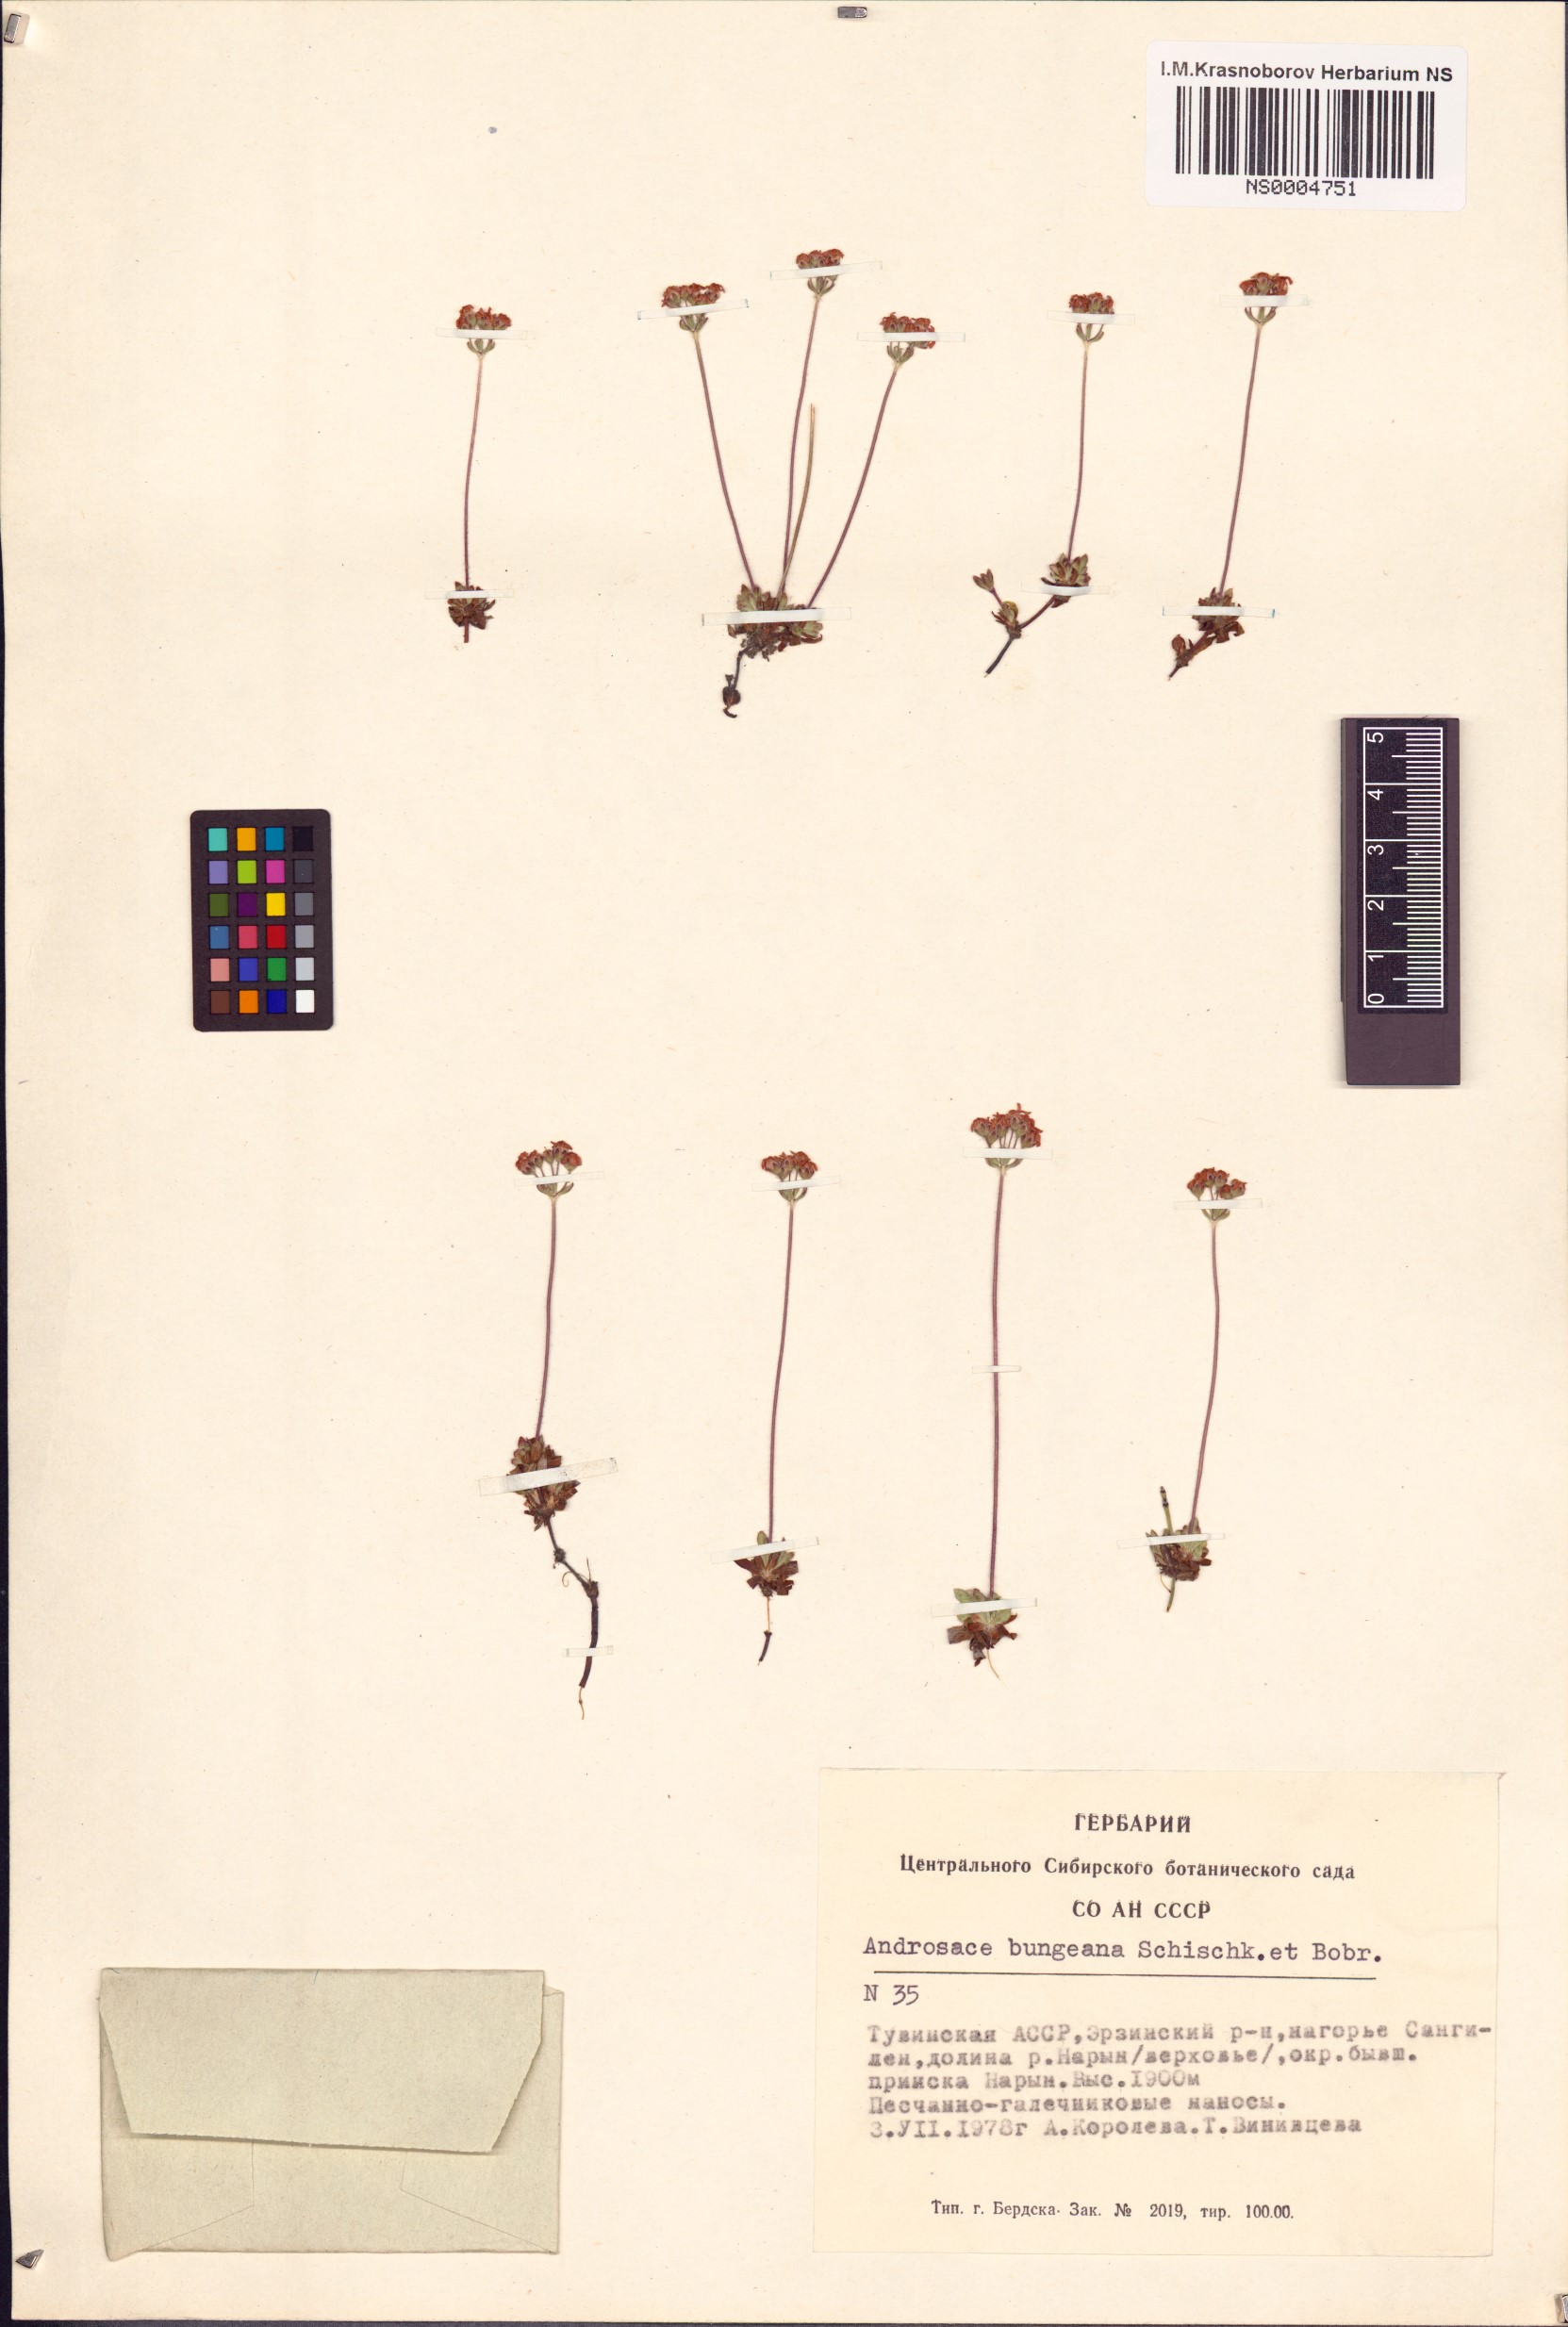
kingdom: Plantae
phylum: Tracheophyta
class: Magnoliopsida
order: Ericales
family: Primulaceae
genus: Androsace
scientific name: Androsace bungeana
